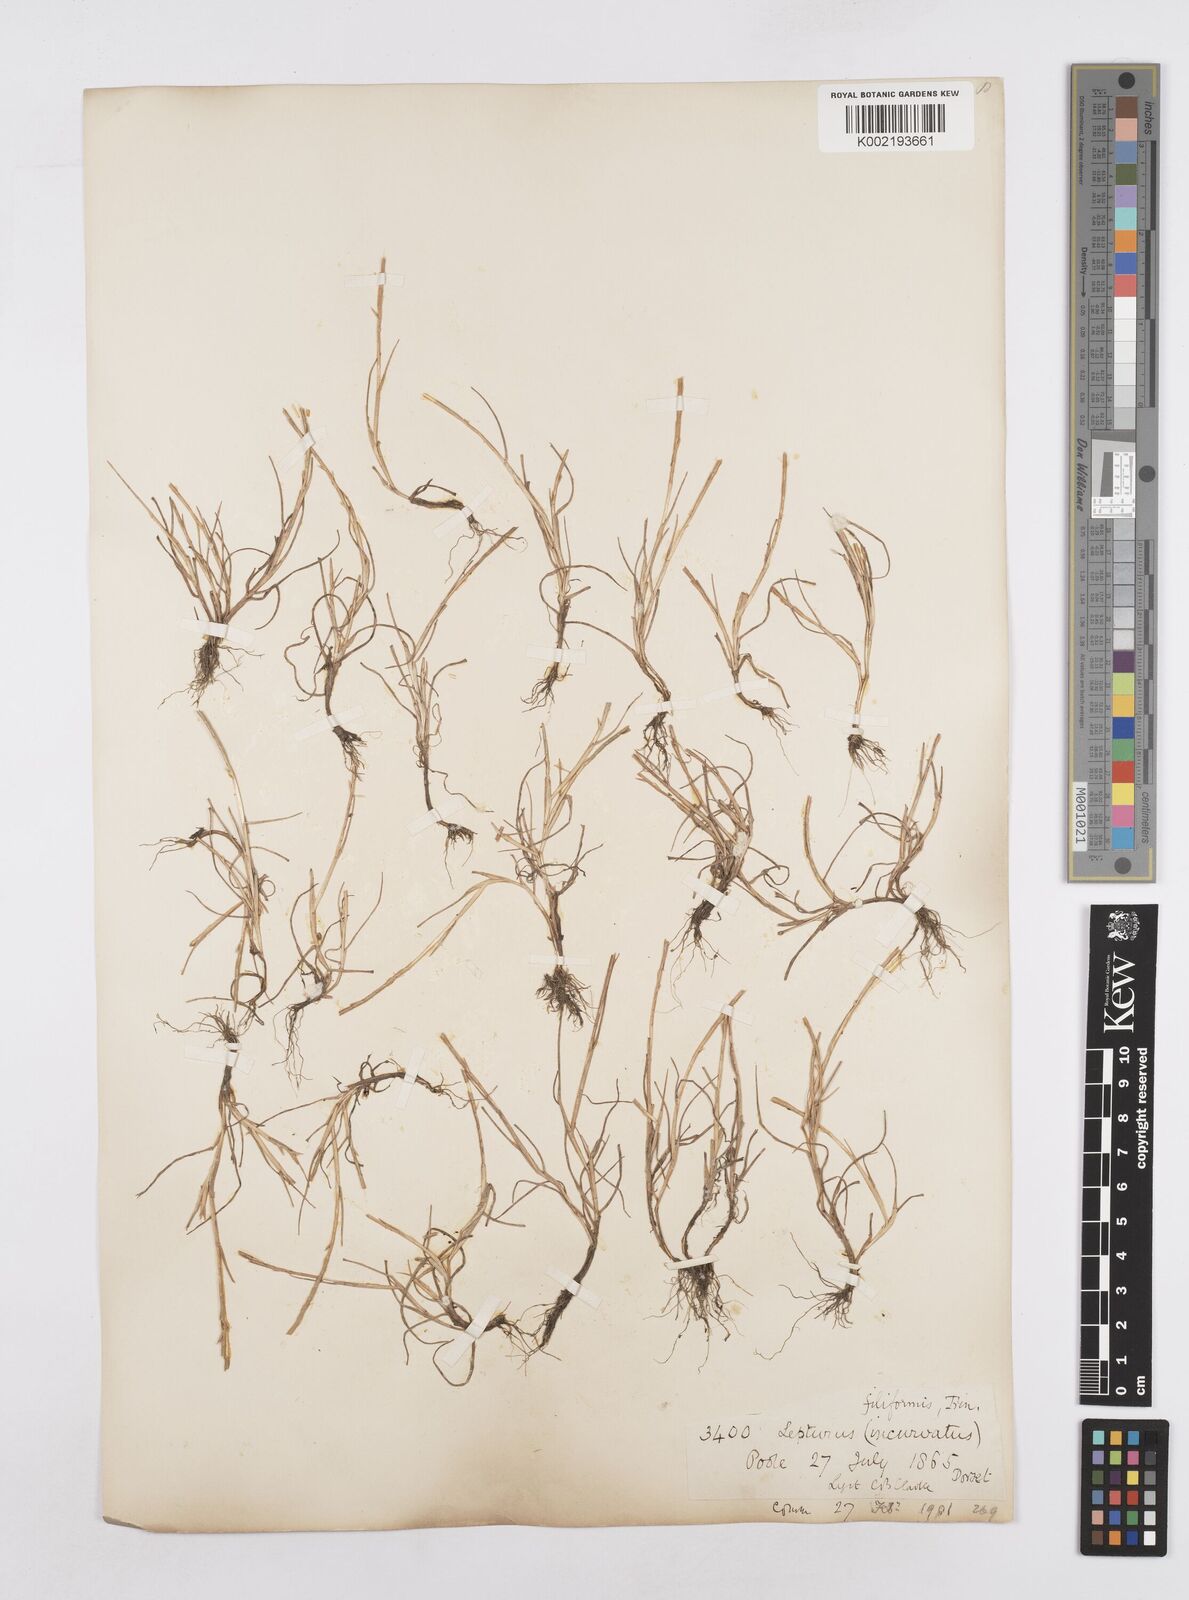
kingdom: Plantae
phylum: Tracheophyta
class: Liliopsida
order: Poales
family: Poaceae
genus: Parapholis
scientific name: Parapholis strigosa
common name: Hard-grass
